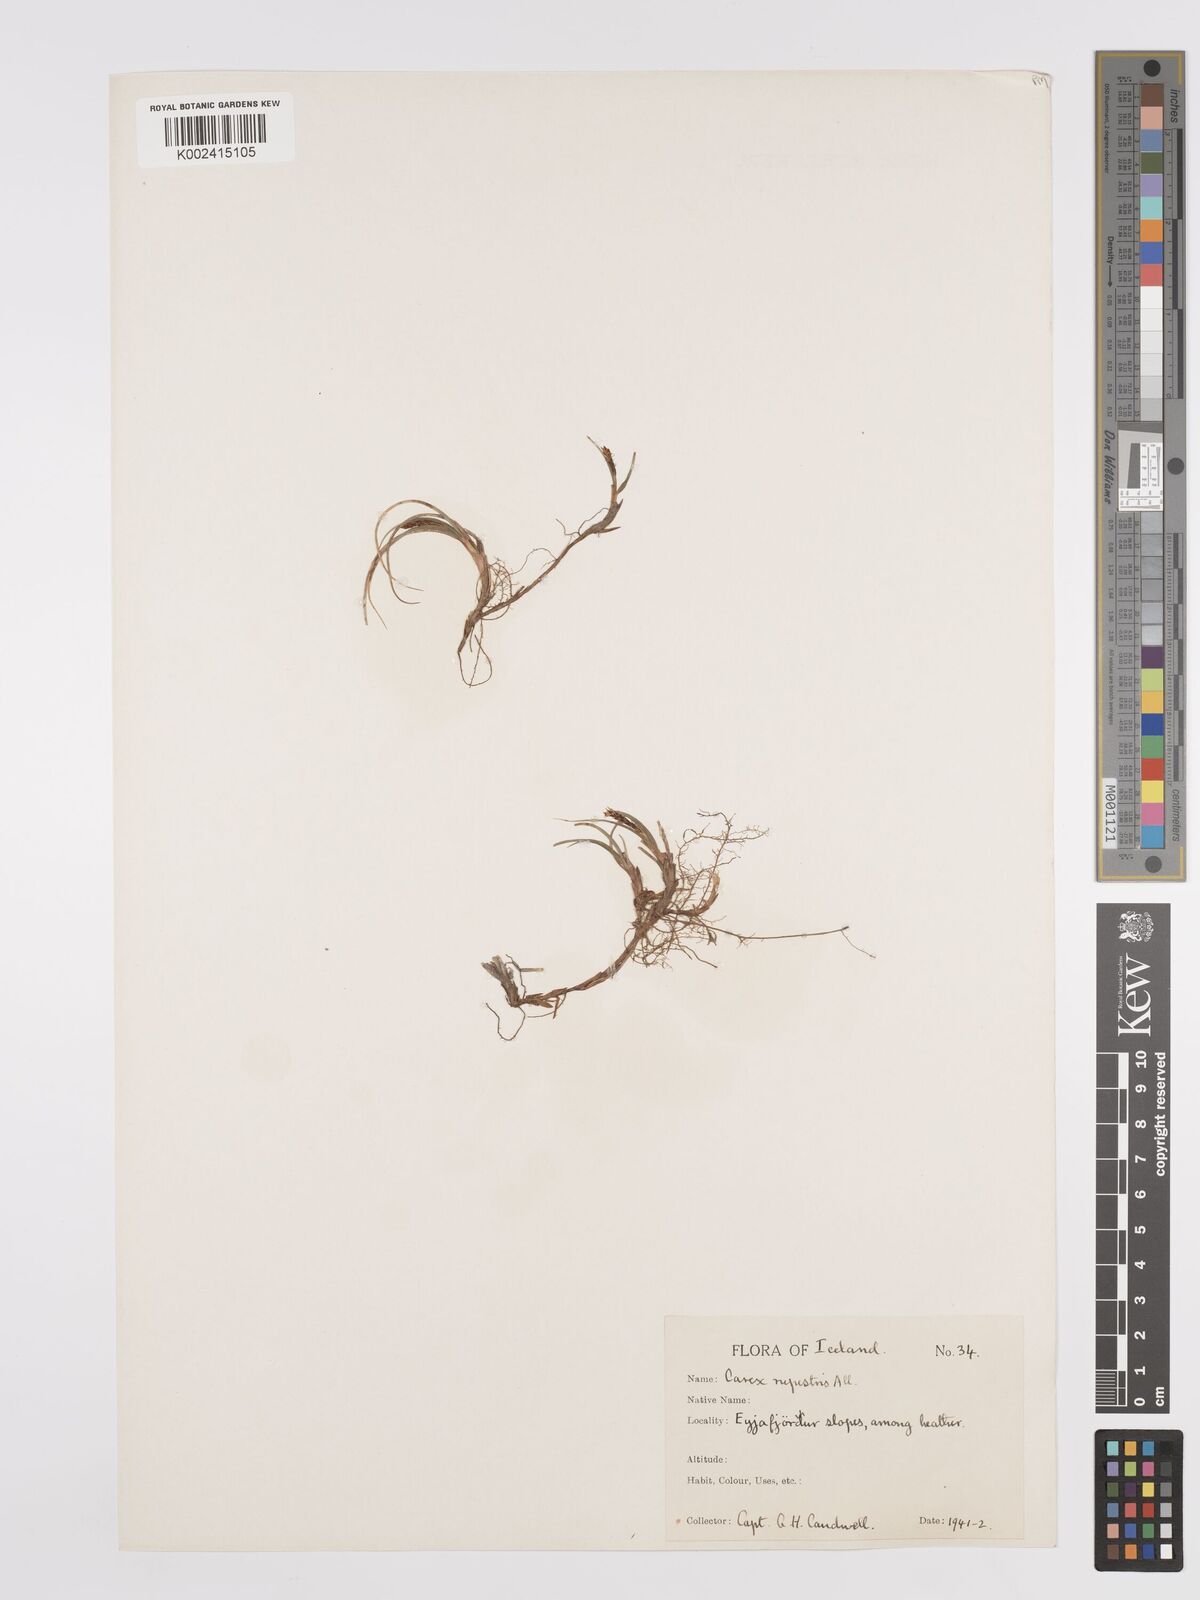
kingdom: Plantae
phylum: Tracheophyta
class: Liliopsida
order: Poales
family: Cyperaceae
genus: Carex
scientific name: Carex rupestris
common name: Rock sedge
